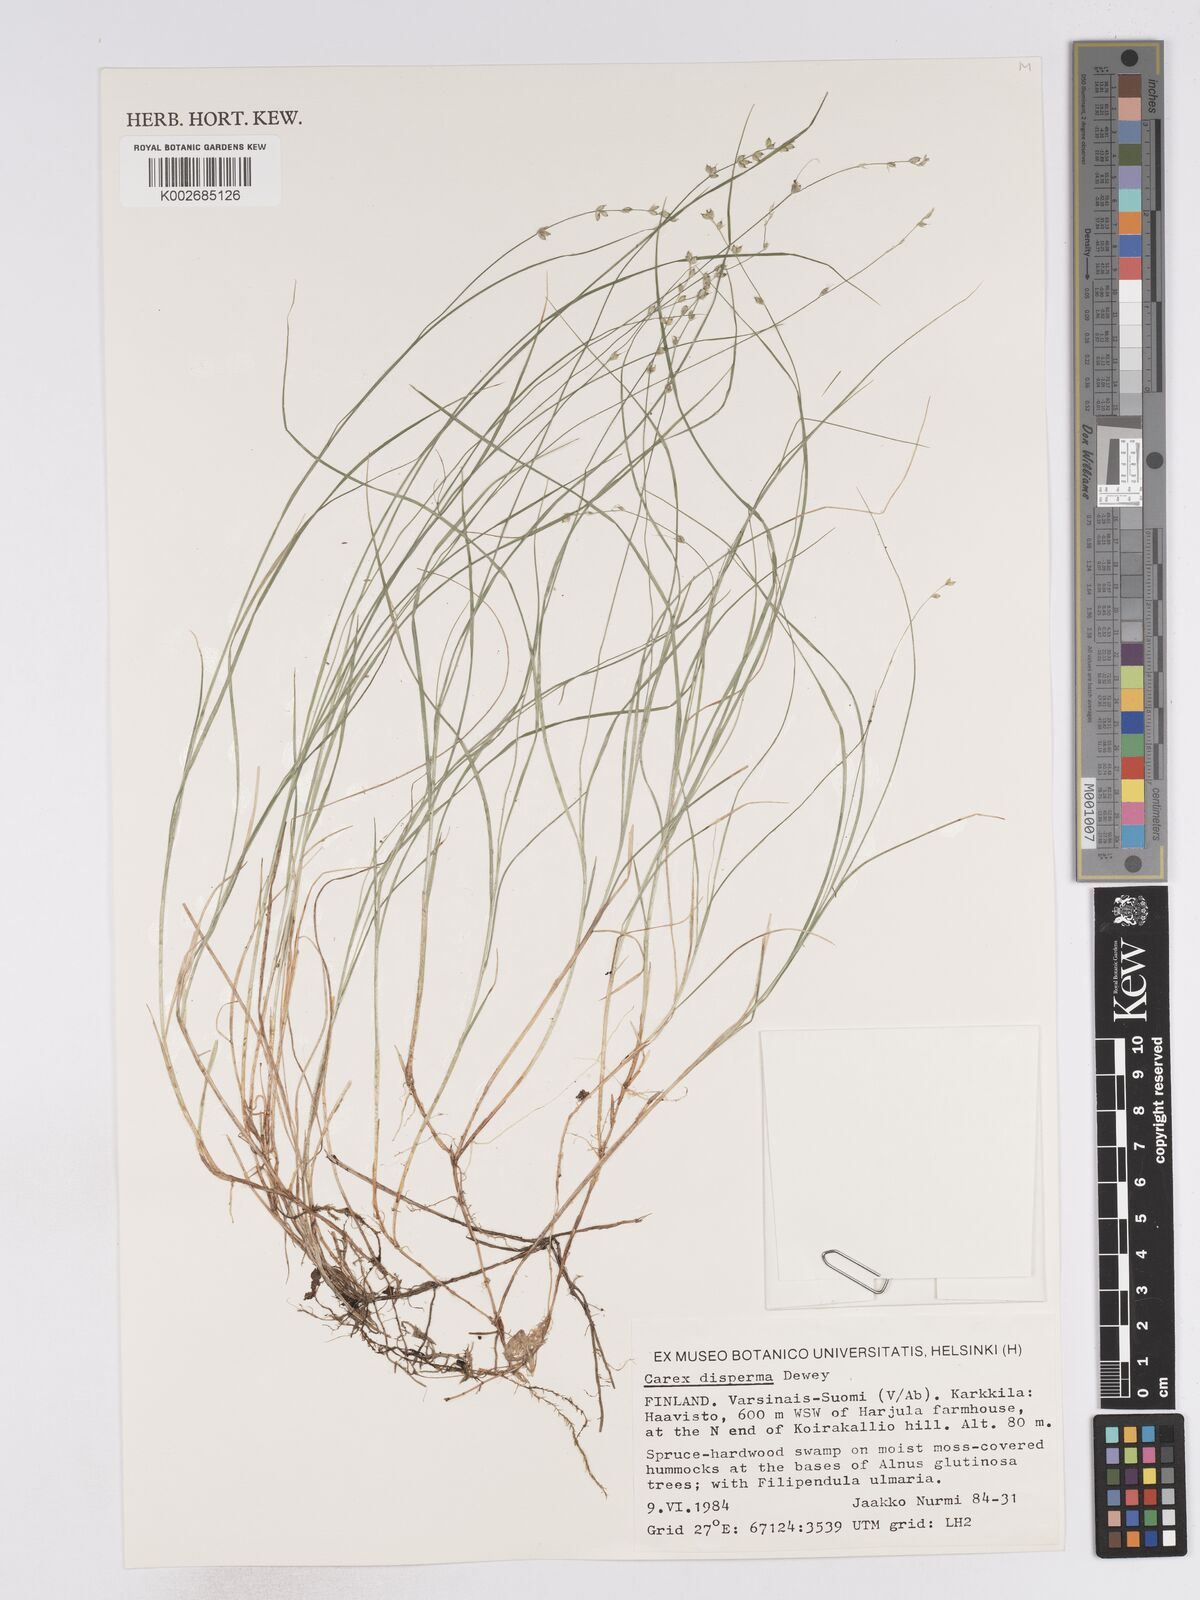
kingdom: Plantae
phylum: Tracheophyta
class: Liliopsida
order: Poales
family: Cyperaceae
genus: Carex
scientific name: Carex disperma
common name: Short-leaved sedge
